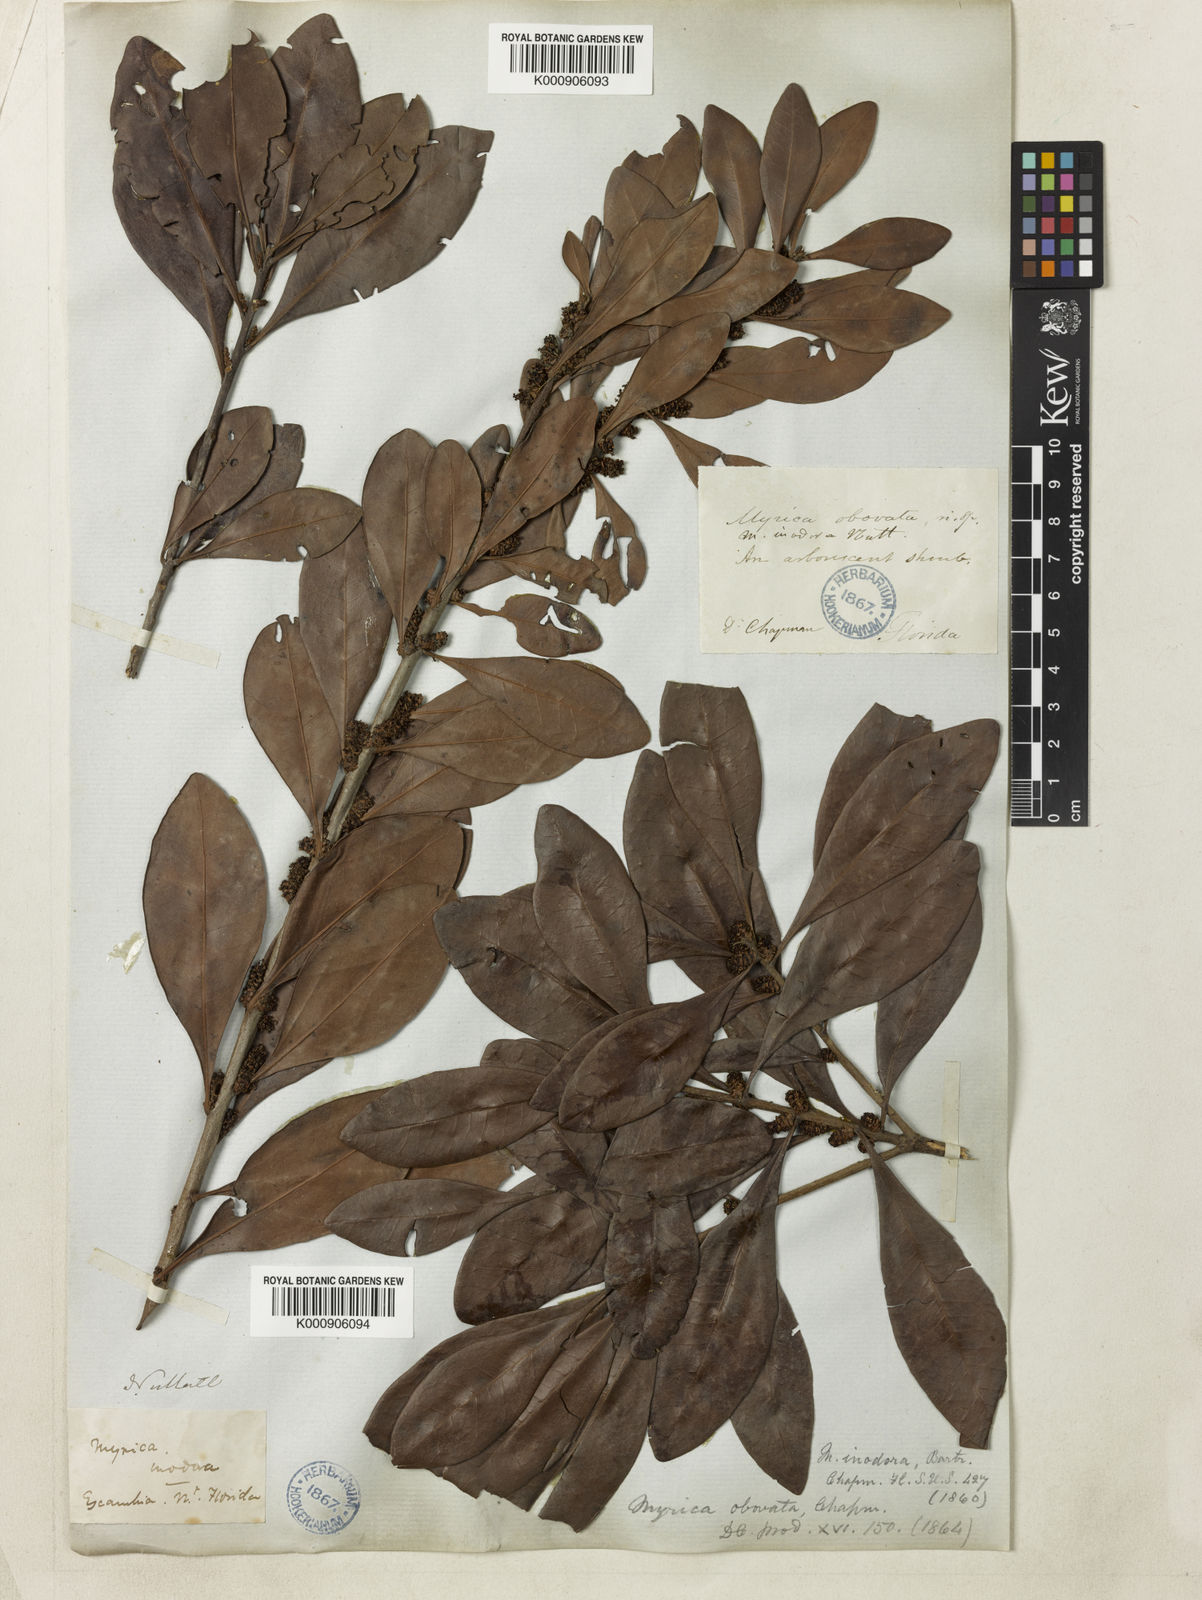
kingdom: Plantae
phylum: Tracheophyta
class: Magnoliopsida
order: Fagales
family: Myricaceae
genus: Morella
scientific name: Morella inodora
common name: Candle-berry
